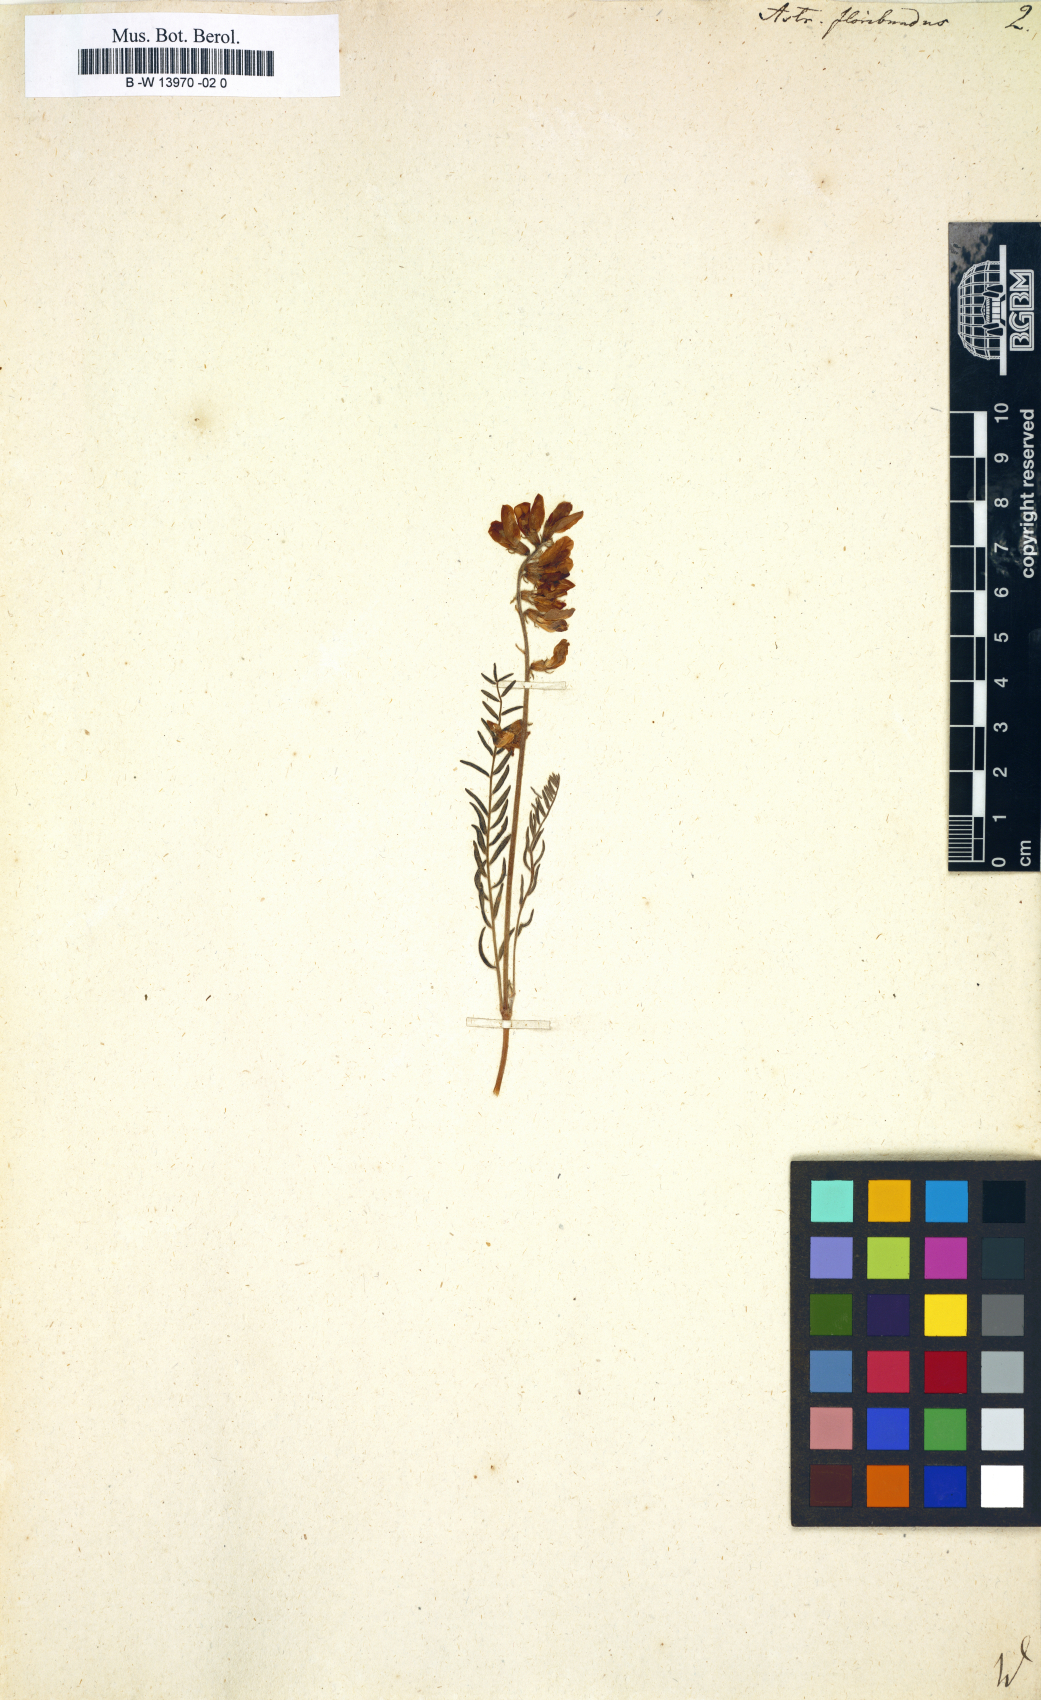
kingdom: Plantae
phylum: Tracheophyta
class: Magnoliopsida
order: Fabales
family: Fabaceae
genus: Oxytropis
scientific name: Oxytropis floribunda
